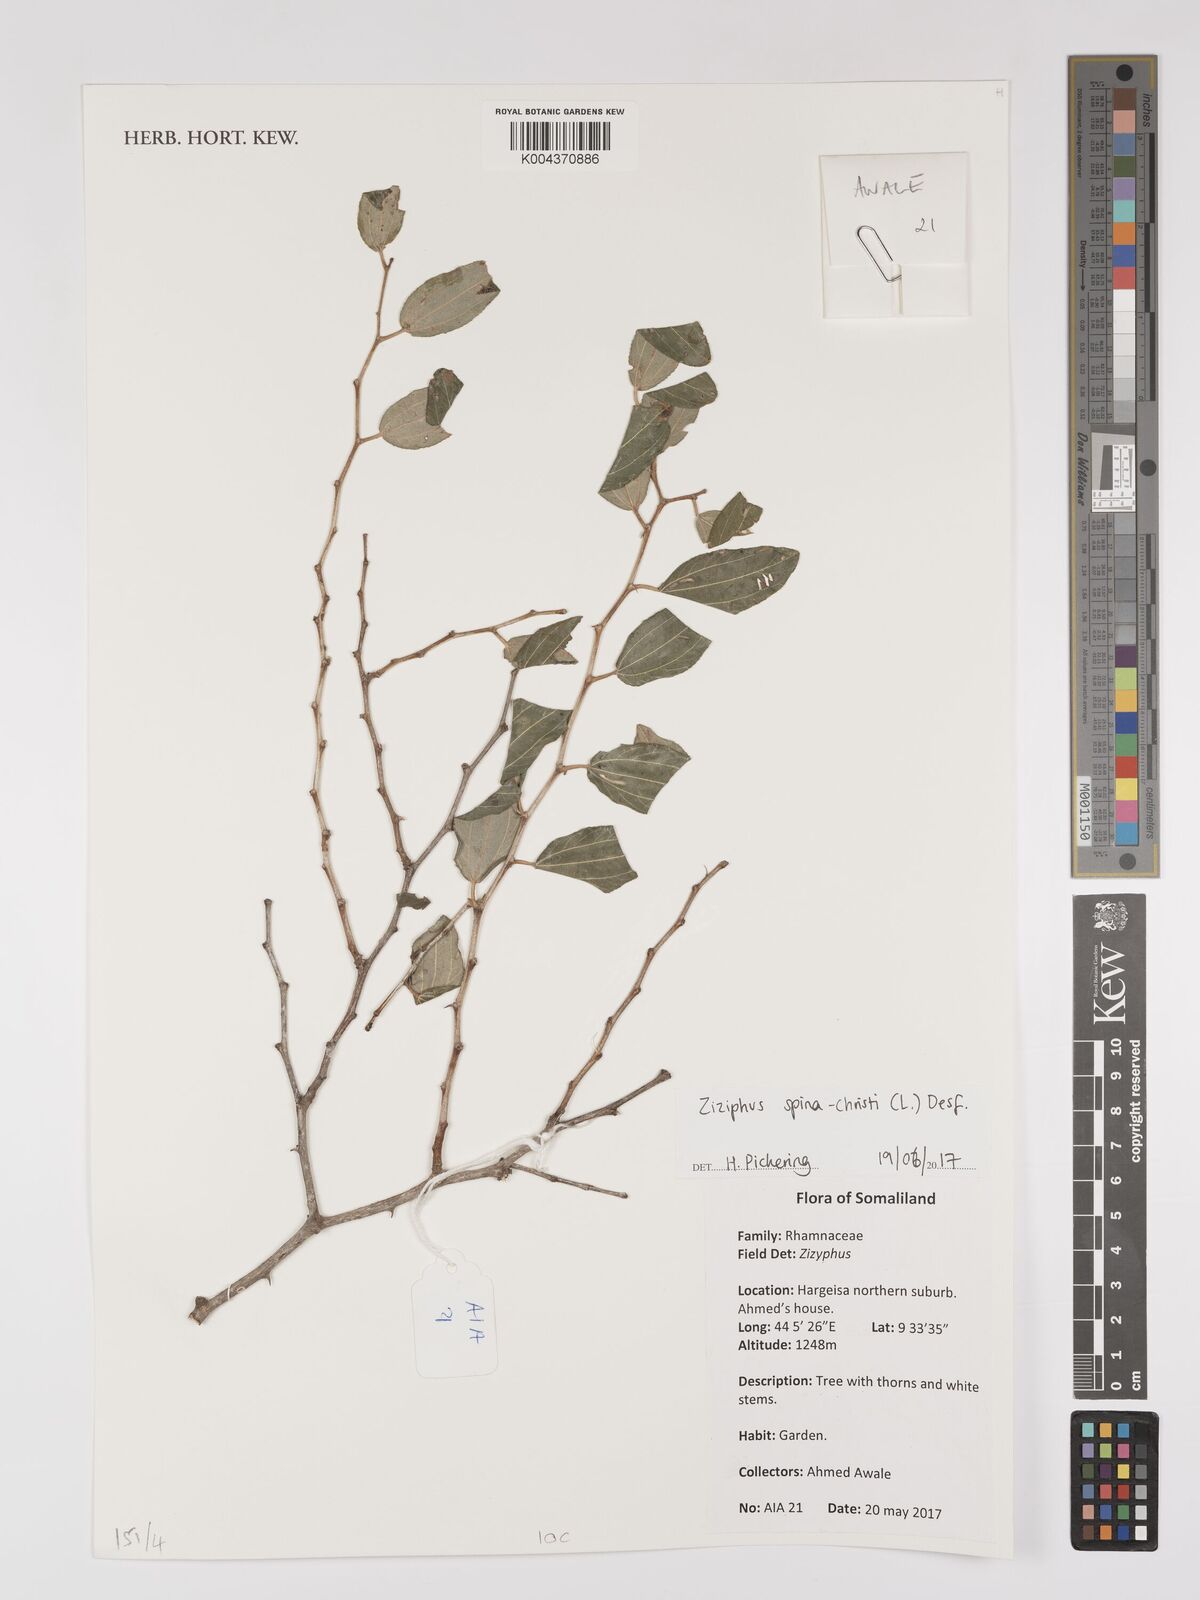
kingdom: Plantae
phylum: Tracheophyta
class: Magnoliopsida
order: Rosales
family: Rhamnaceae
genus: Ziziphus
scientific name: Ziziphus spina-christi
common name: Syrian christ-thorn
